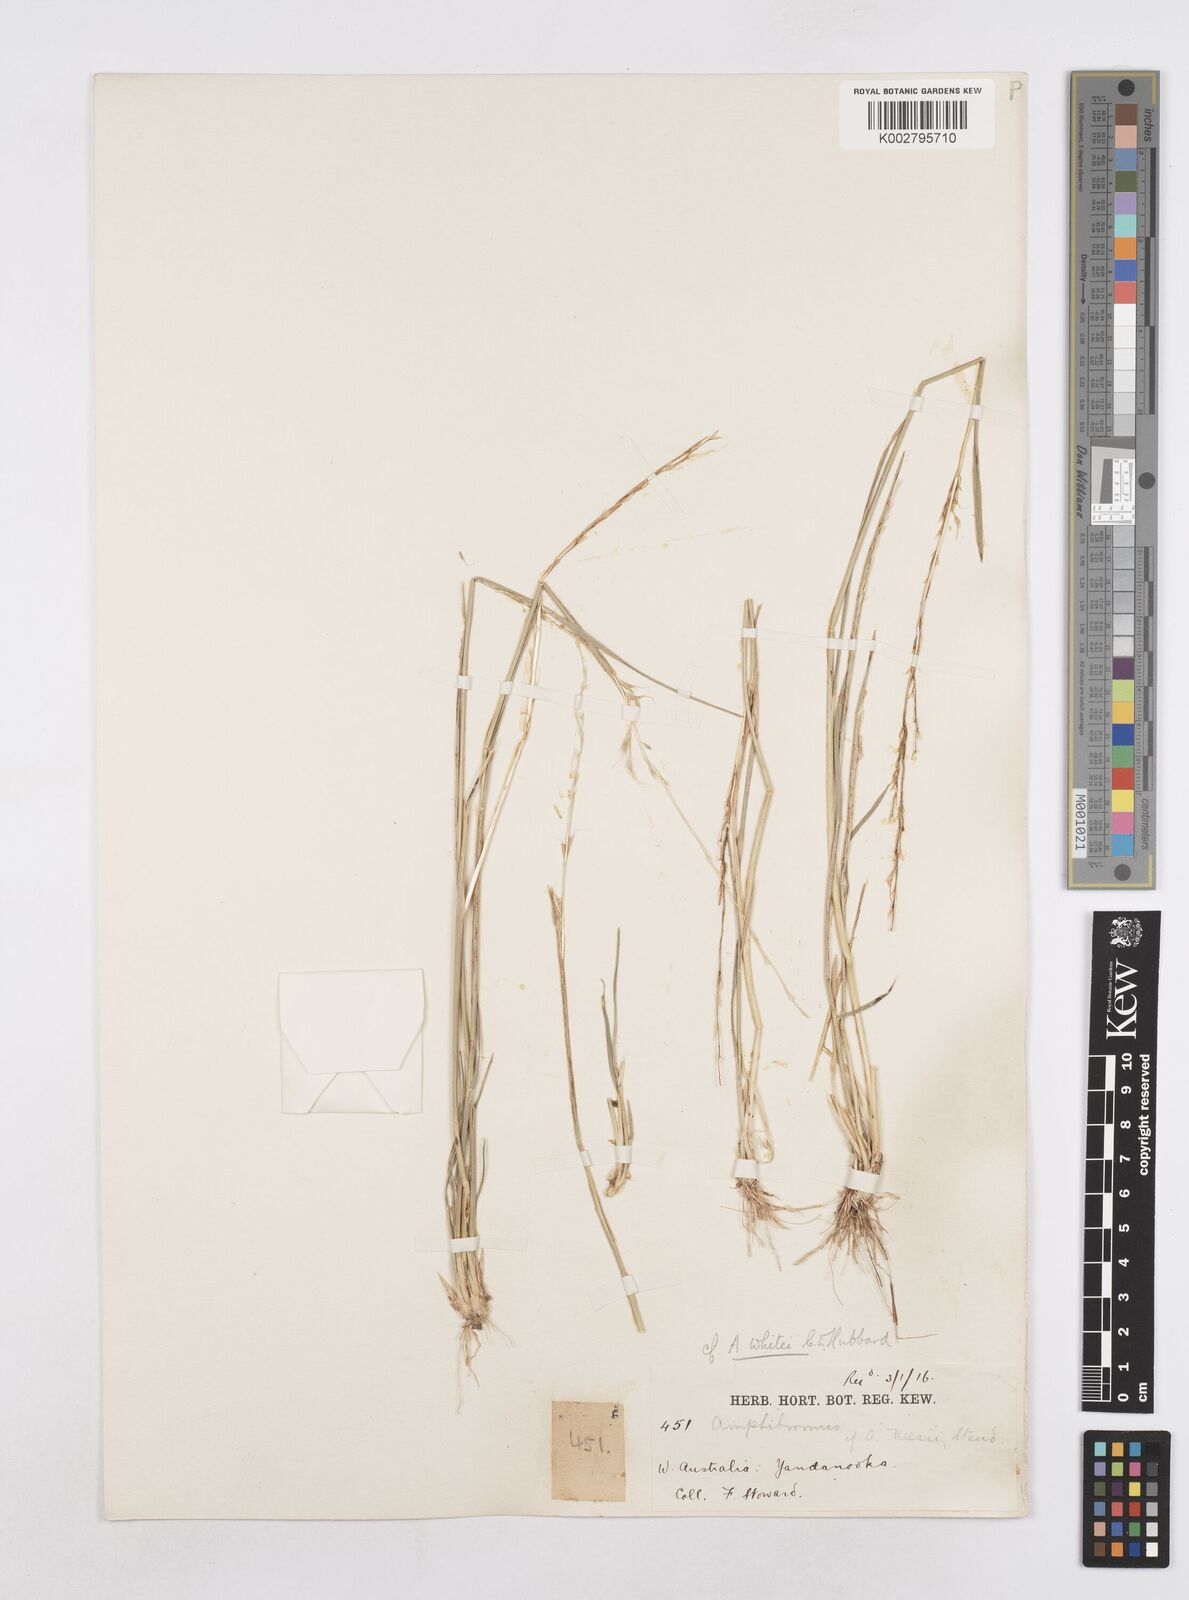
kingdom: Plantae
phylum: Tracheophyta
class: Liliopsida
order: Poales
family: Poaceae
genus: Helictotrichon
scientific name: Helictotrichon
